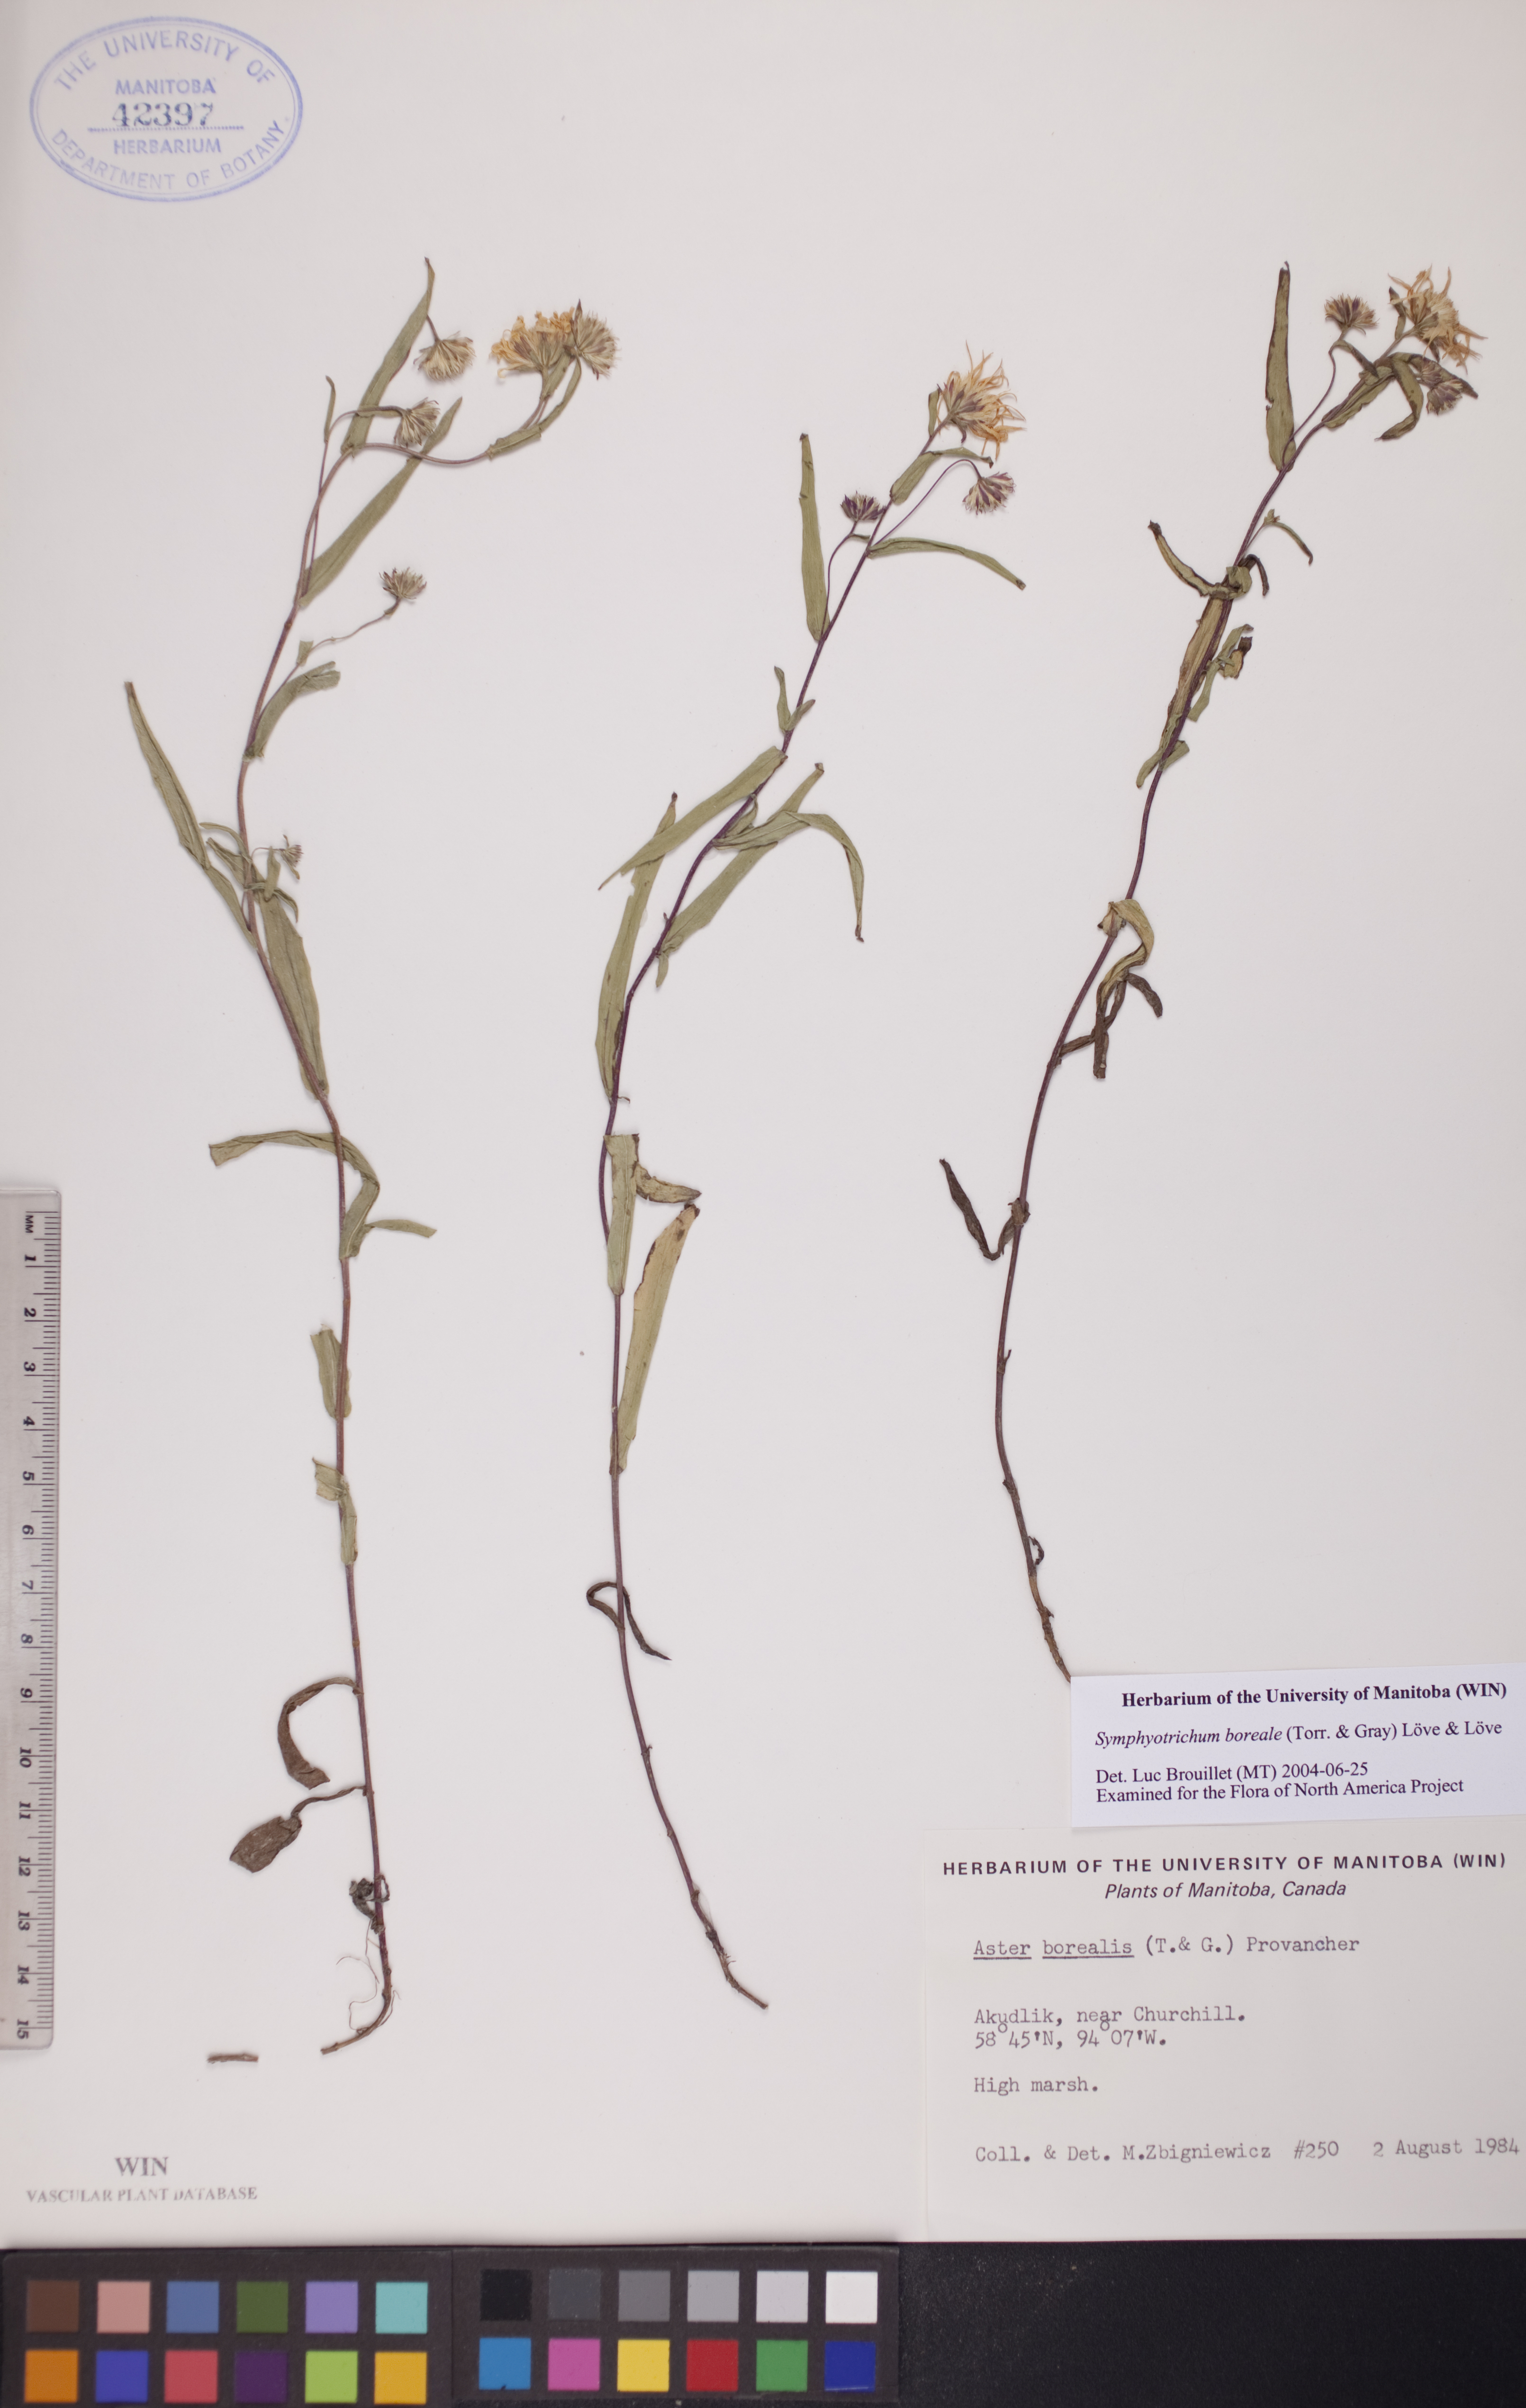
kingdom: Plantae
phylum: Tracheophyta
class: Magnoliopsida
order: Asterales
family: Asteraceae
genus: Symphyotrichum
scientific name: Symphyotrichum boreale
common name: Northern bog aster
